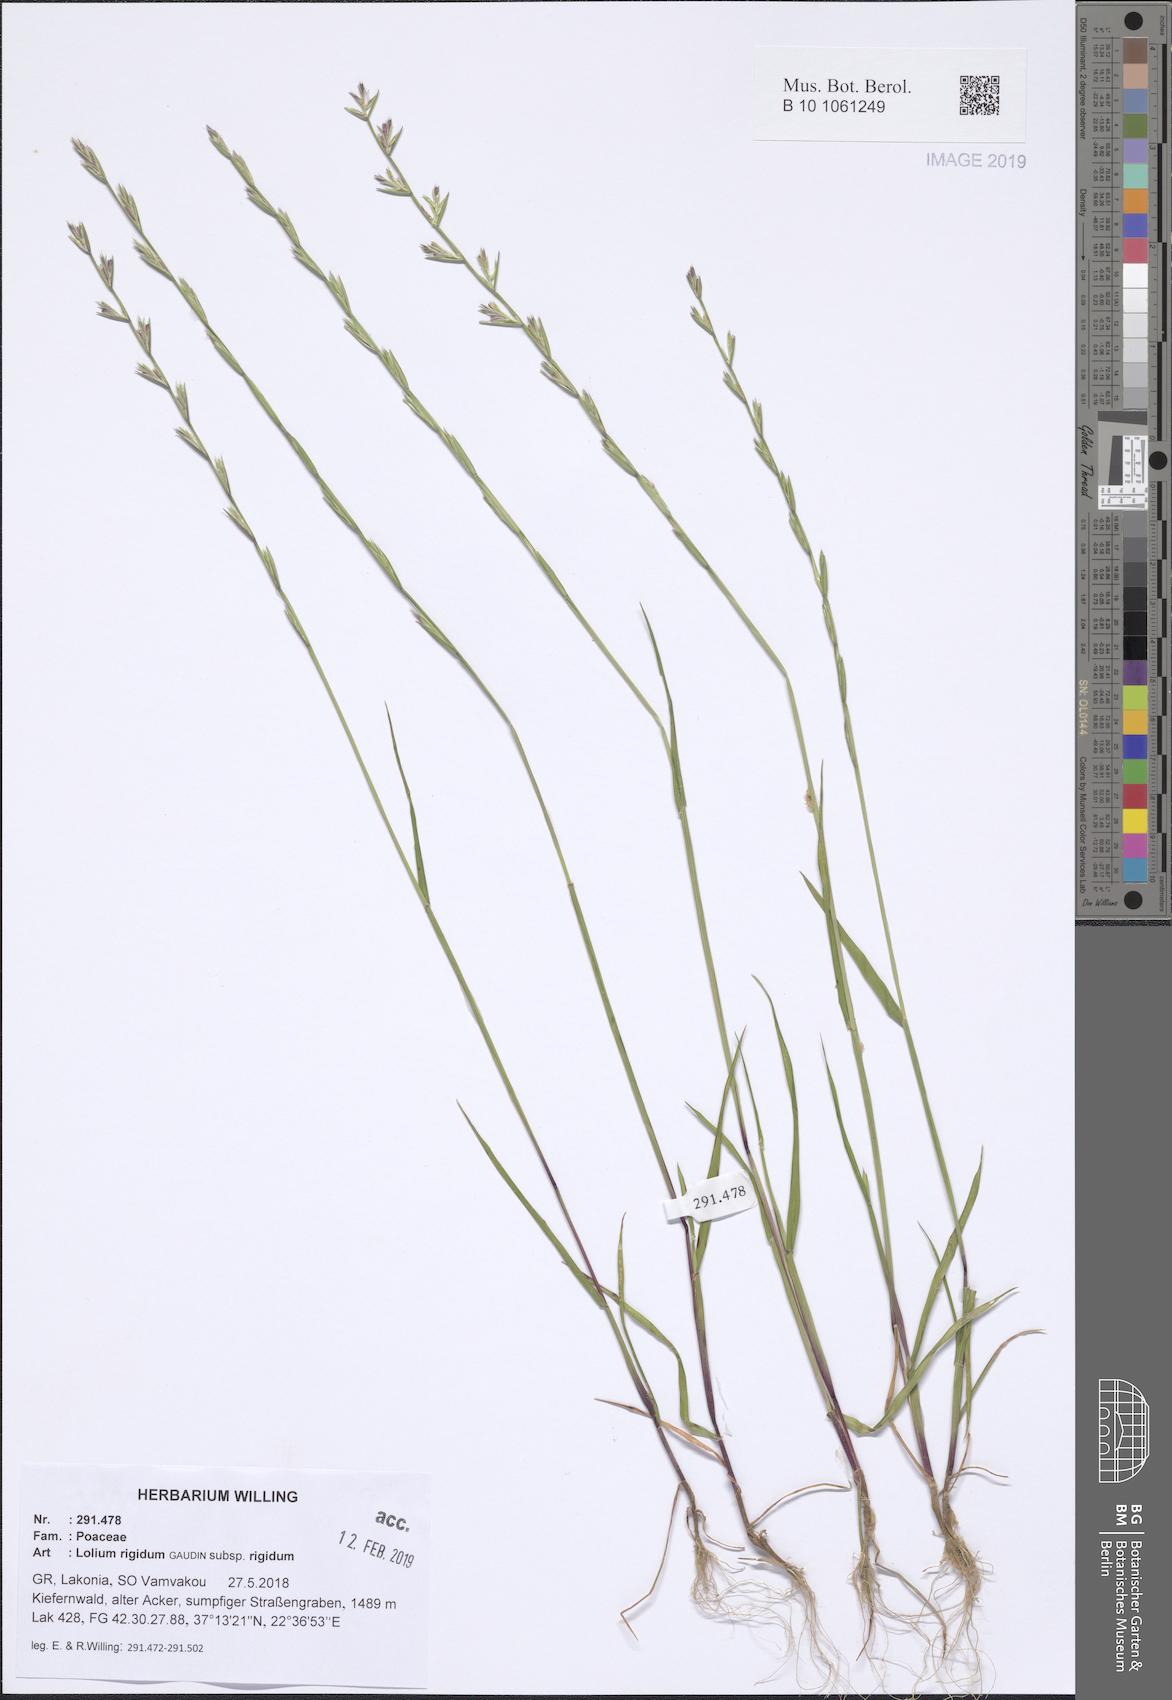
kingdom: Plantae
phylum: Tracheophyta
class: Liliopsida
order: Poales
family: Poaceae
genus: Lolium
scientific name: Lolium rigidum
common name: Wimmera ryegrass
